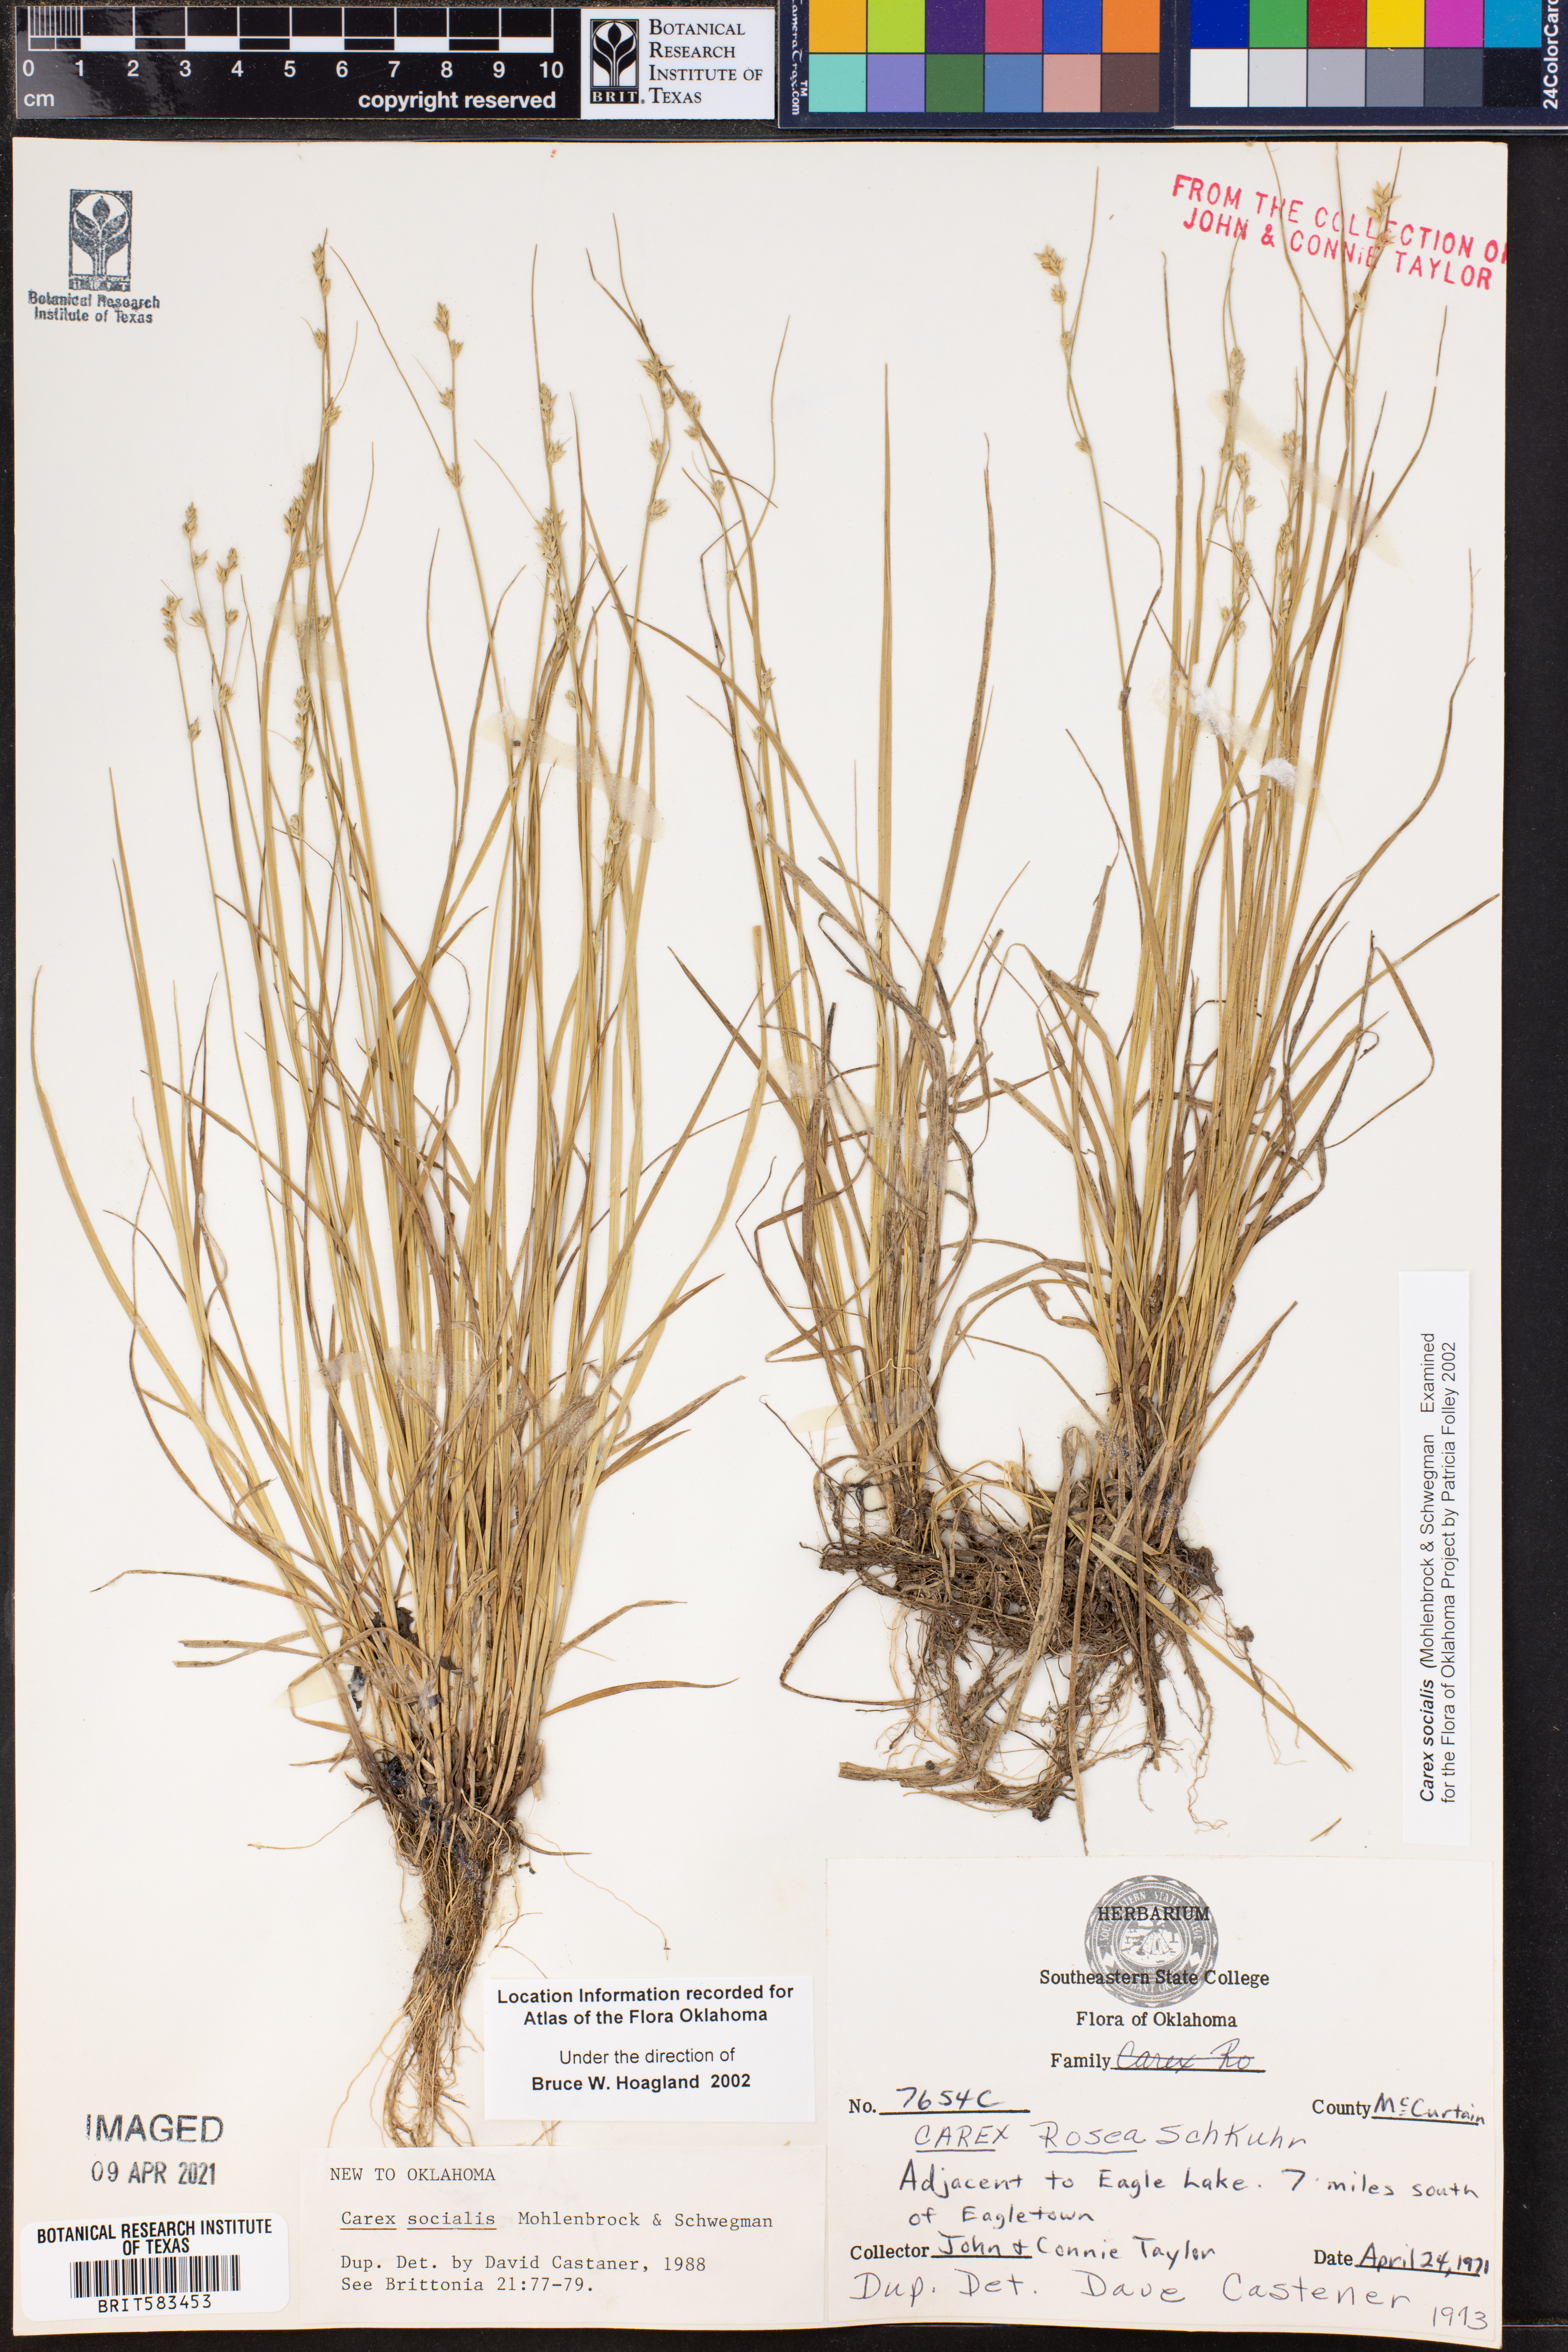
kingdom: Plantae
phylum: Tracheophyta
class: Liliopsida
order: Poales
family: Cyperaceae
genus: Carex
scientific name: Carex socialis
